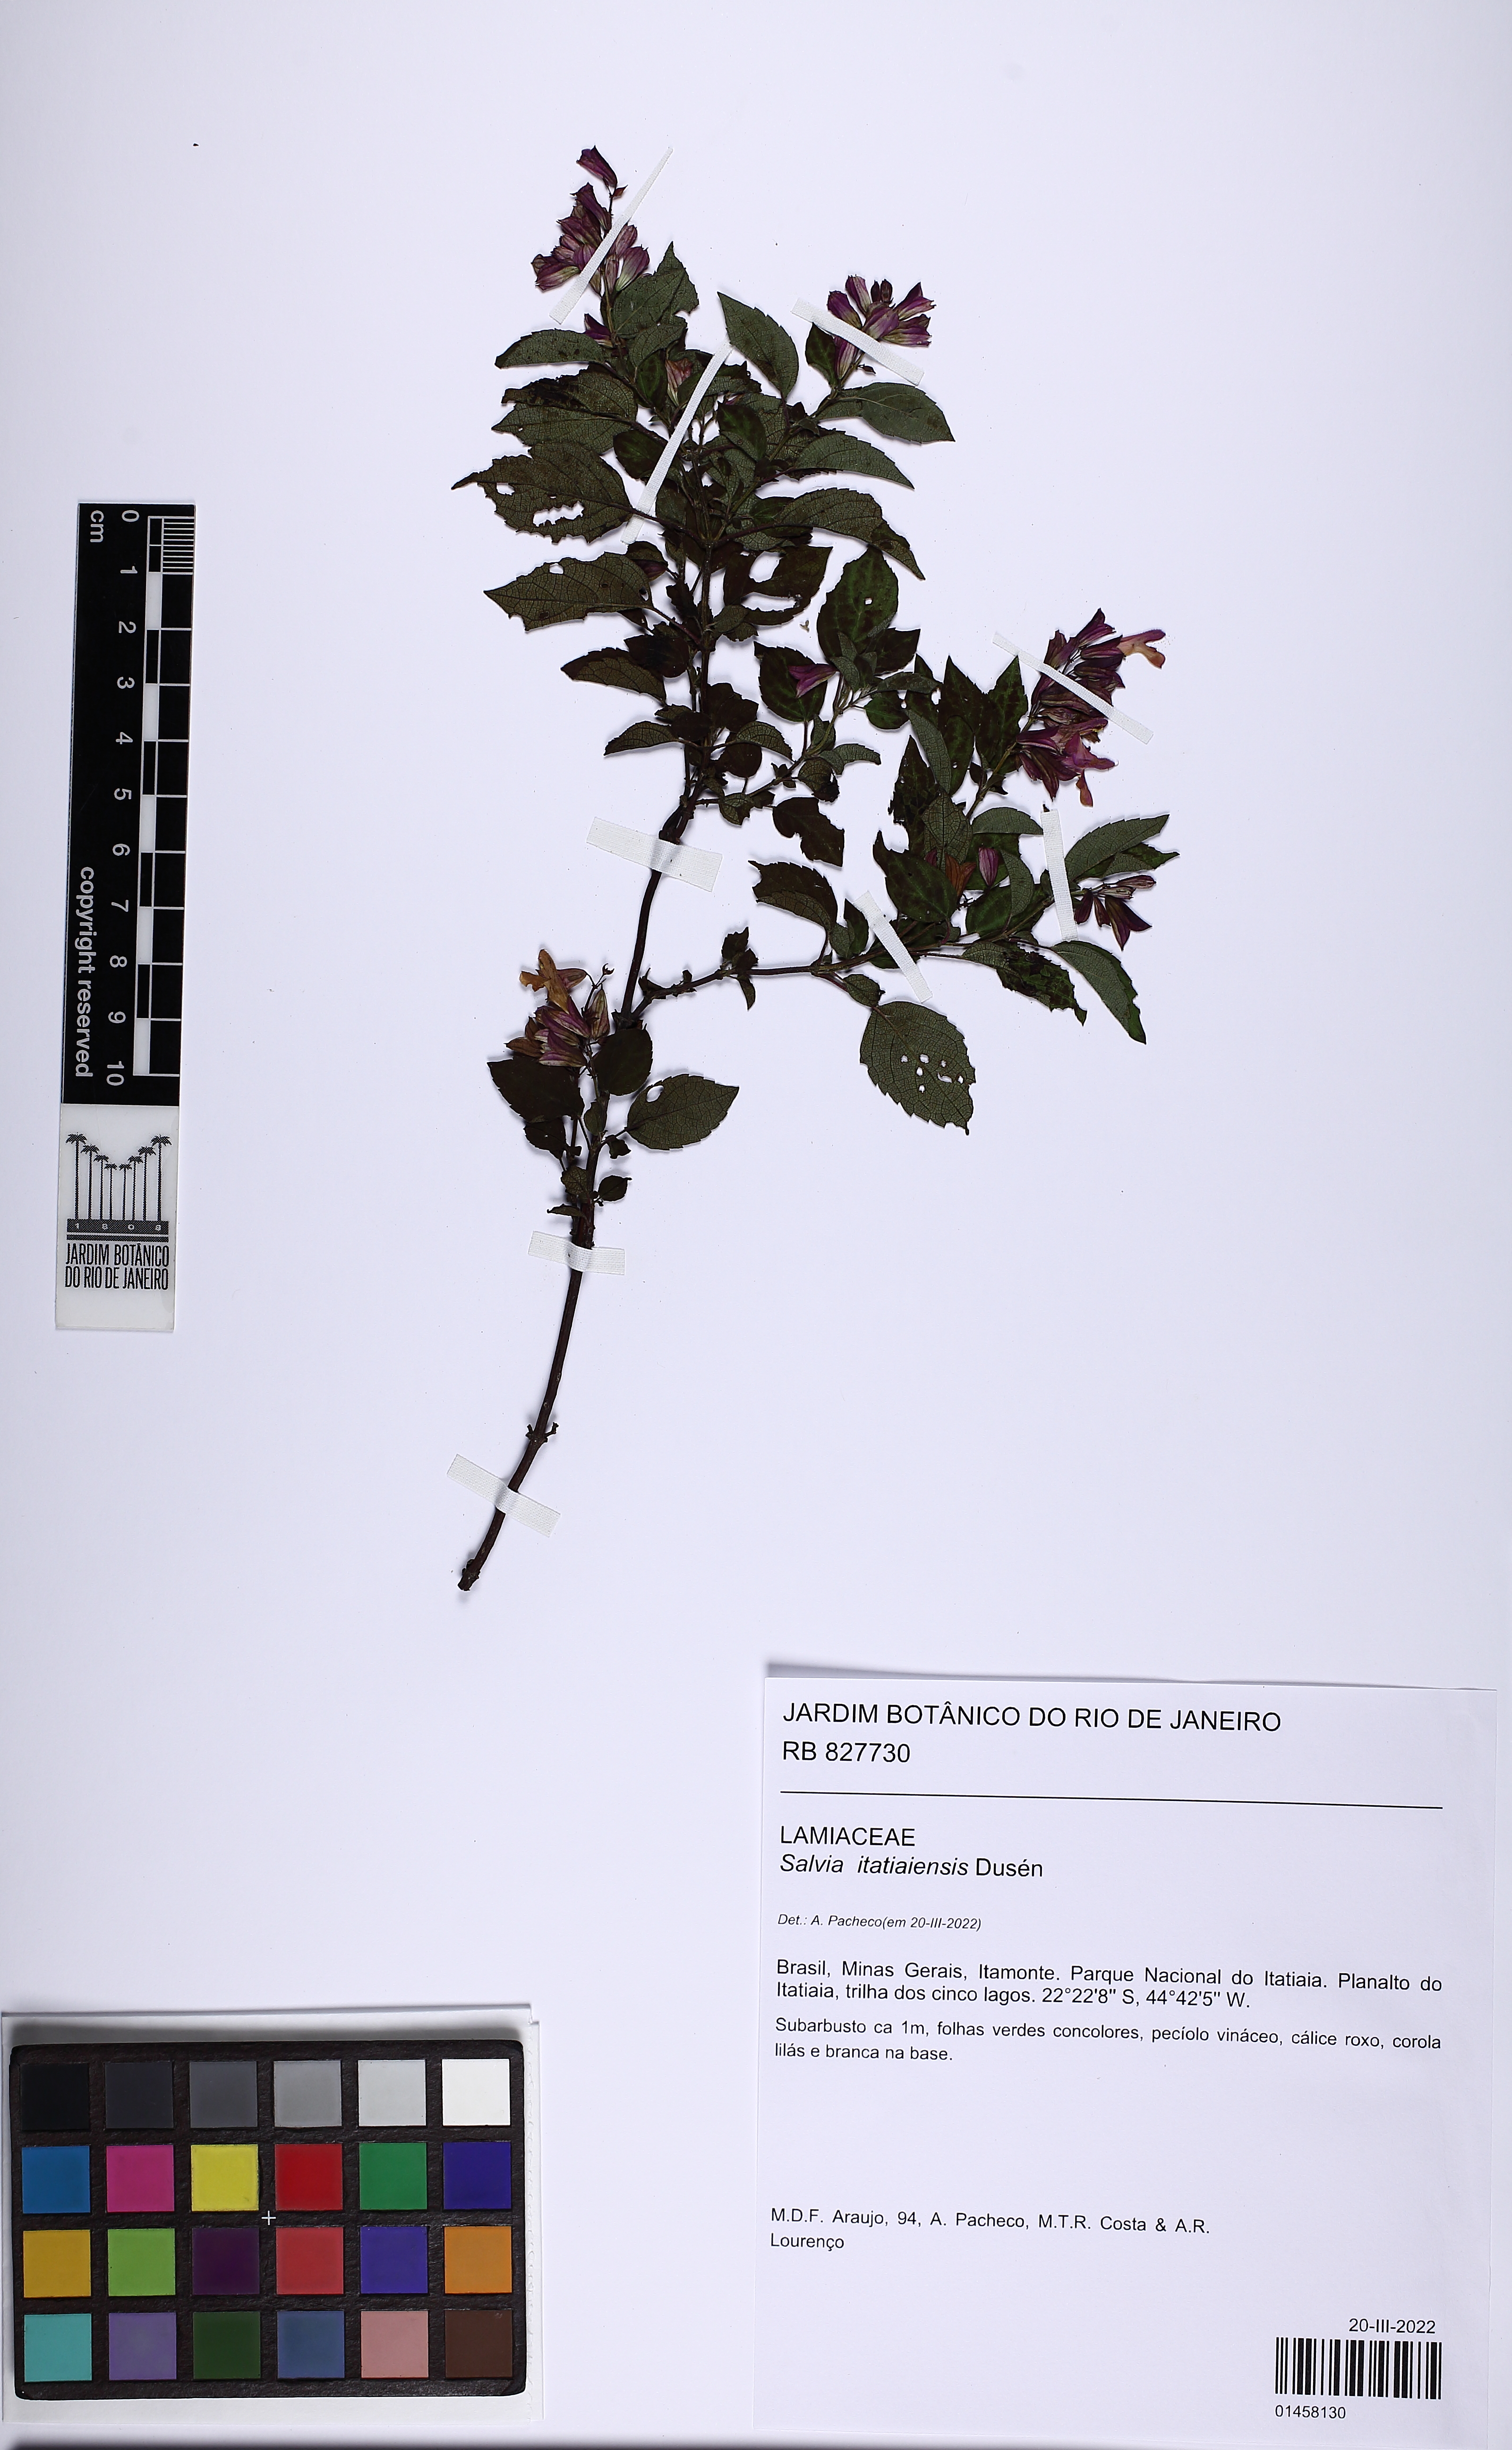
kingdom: Plantae
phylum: Tracheophyta
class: Magnoliopsida
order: Lamiales
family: Lamiaceae
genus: Salvia
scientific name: Salvia itatiaiensis
